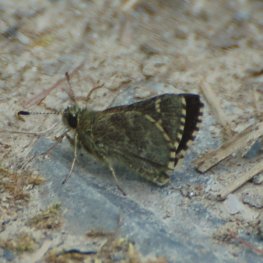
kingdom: Animalia
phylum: Arthropoda
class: Insecta
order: Lepidoptera
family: Hesperiidae
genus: Mastor
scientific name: Mastor hegon
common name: Pepper and Salt Skipper
